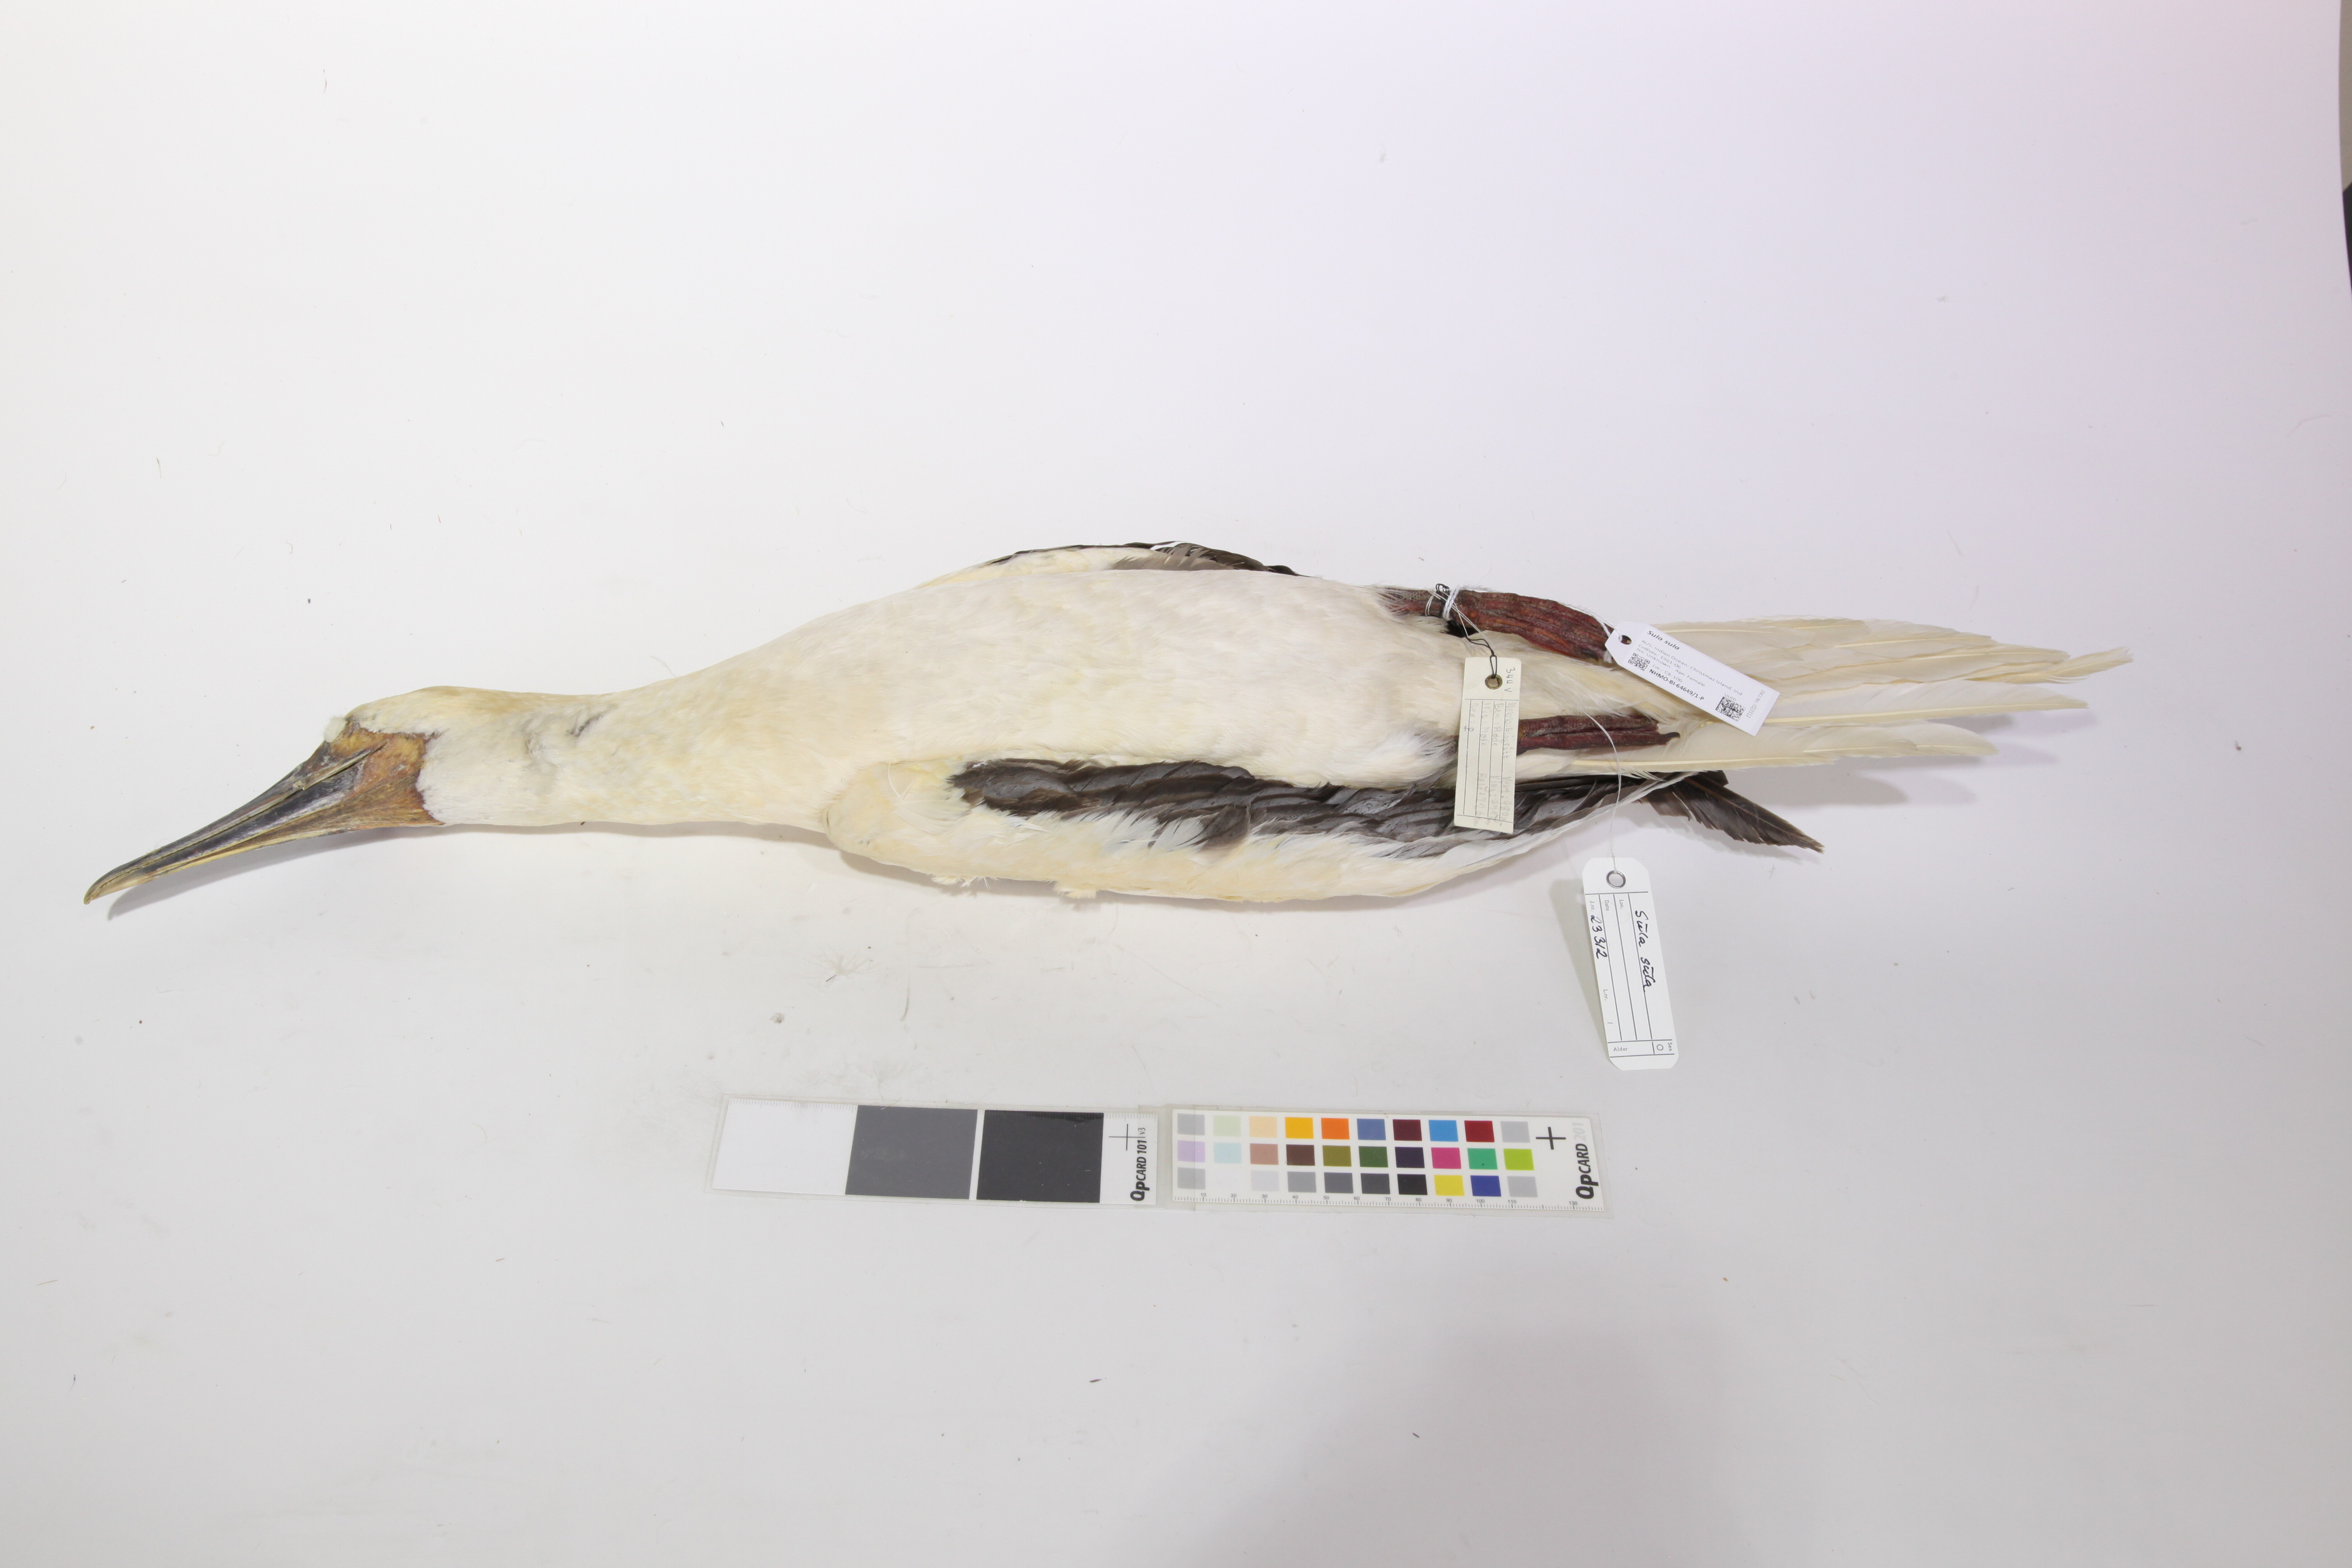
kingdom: Animalia
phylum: Chordata
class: Aves
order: Suliformes
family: Sulidae
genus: Sula
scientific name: Sula sula
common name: Red-footed booby
